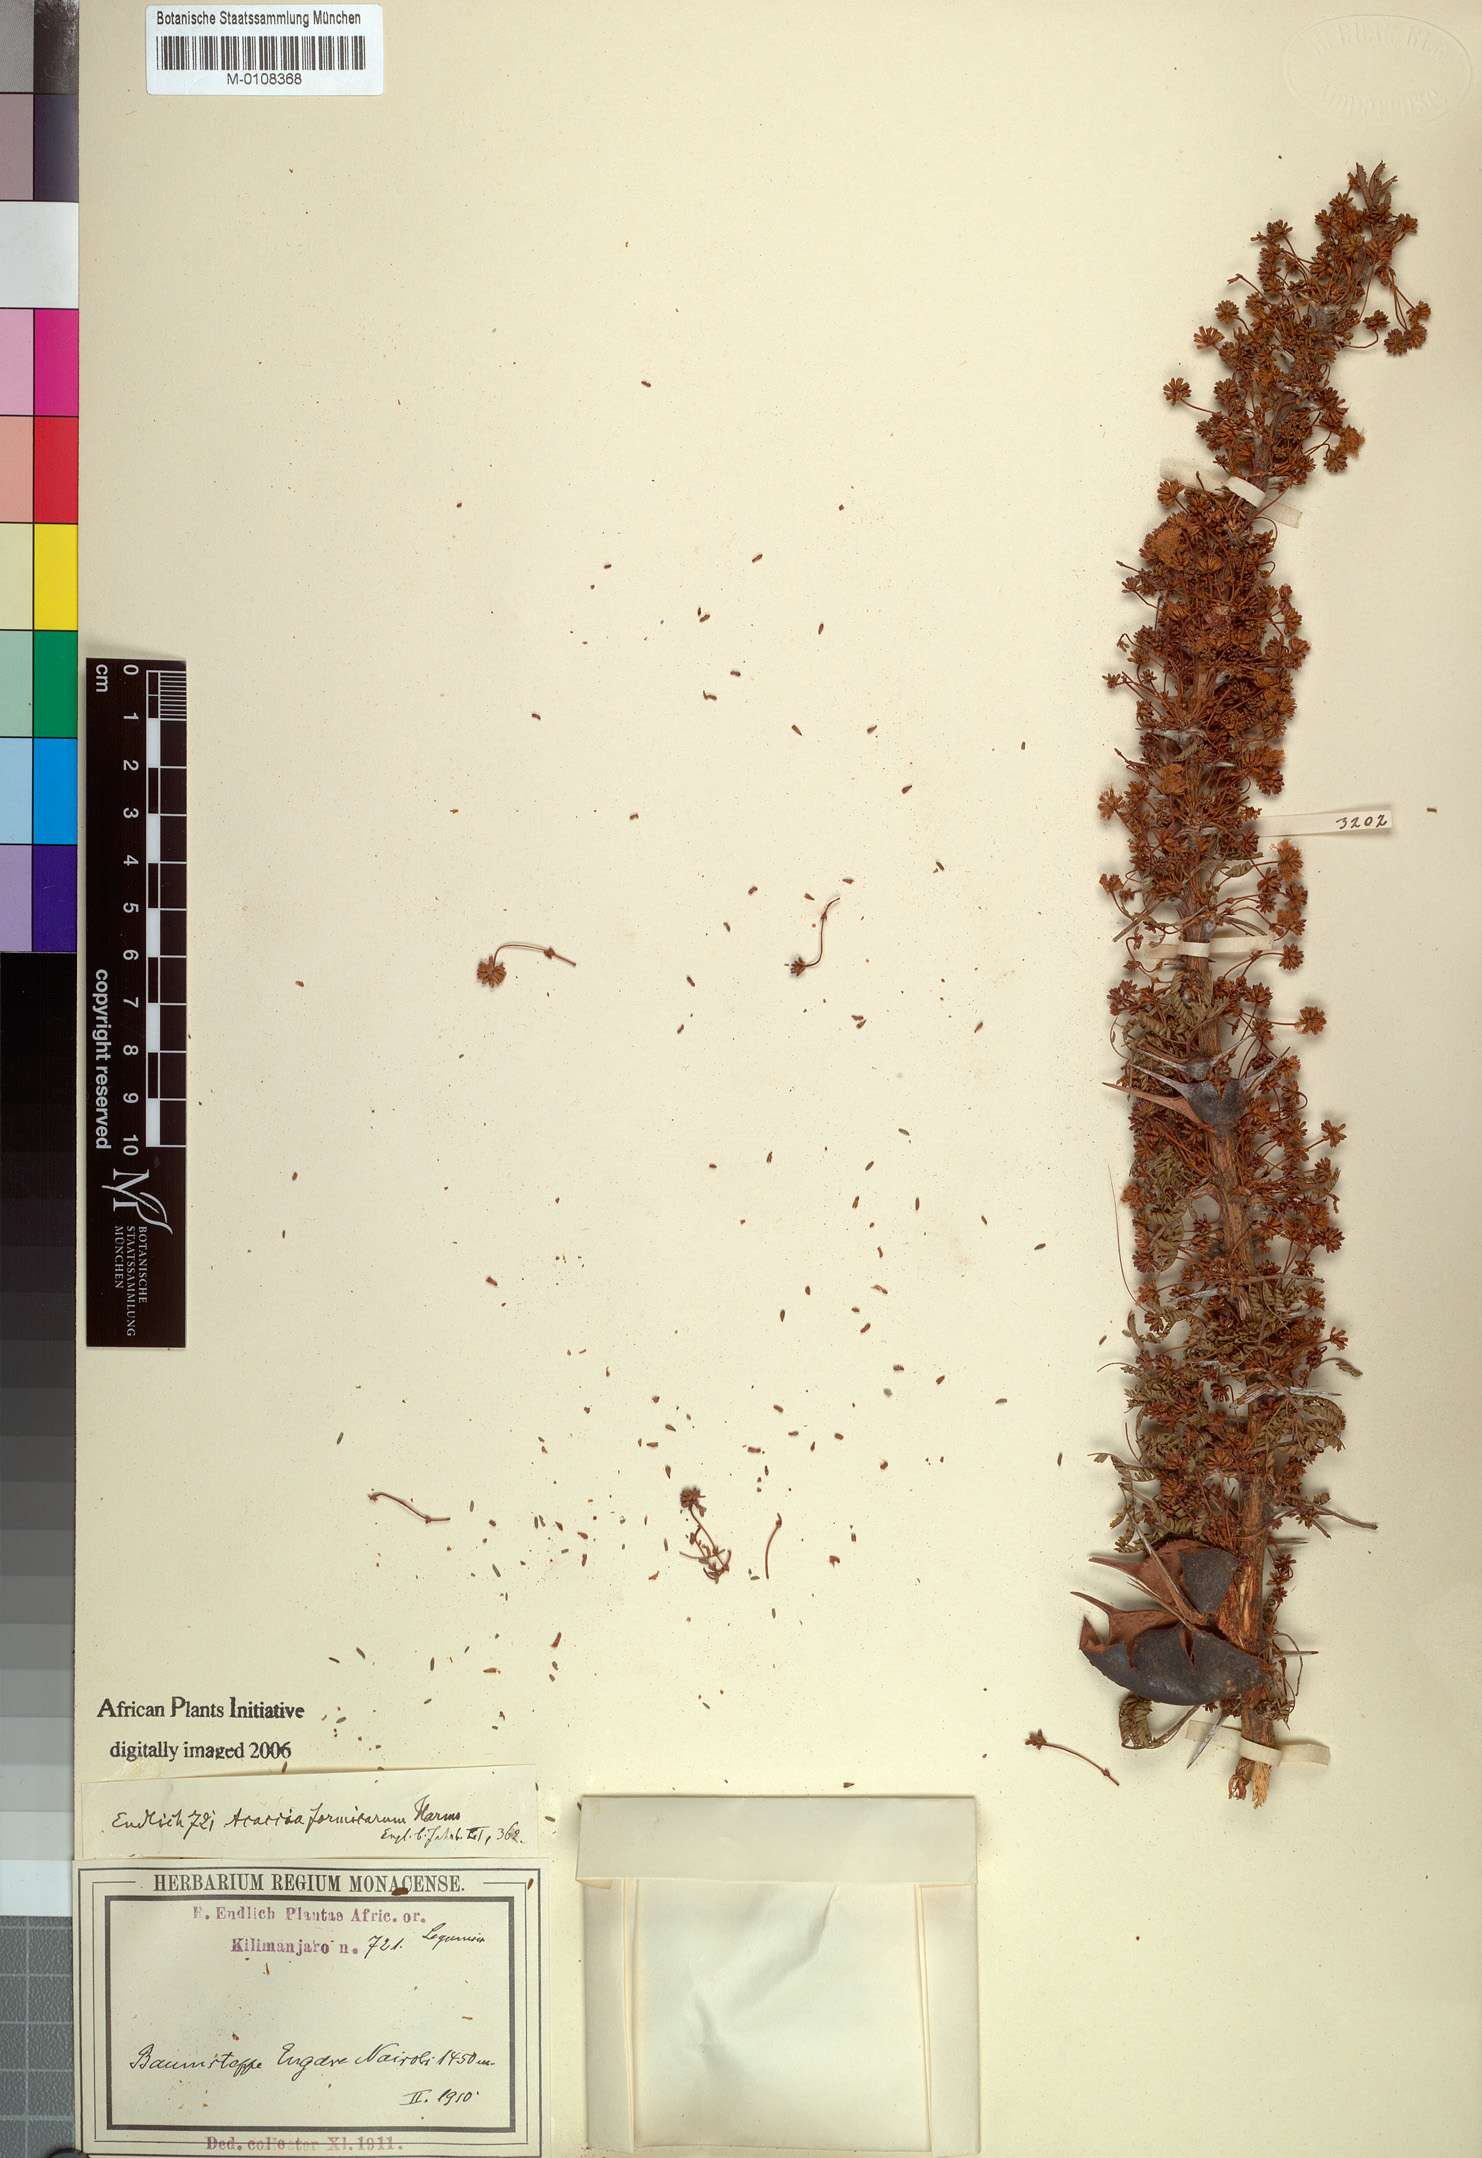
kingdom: Plantae
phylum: Tracheophyta
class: Magnoliopsida
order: Fabales
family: Fabaceae
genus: Vachellia
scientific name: Vachellia drepanolobium
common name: Whistling thorn
